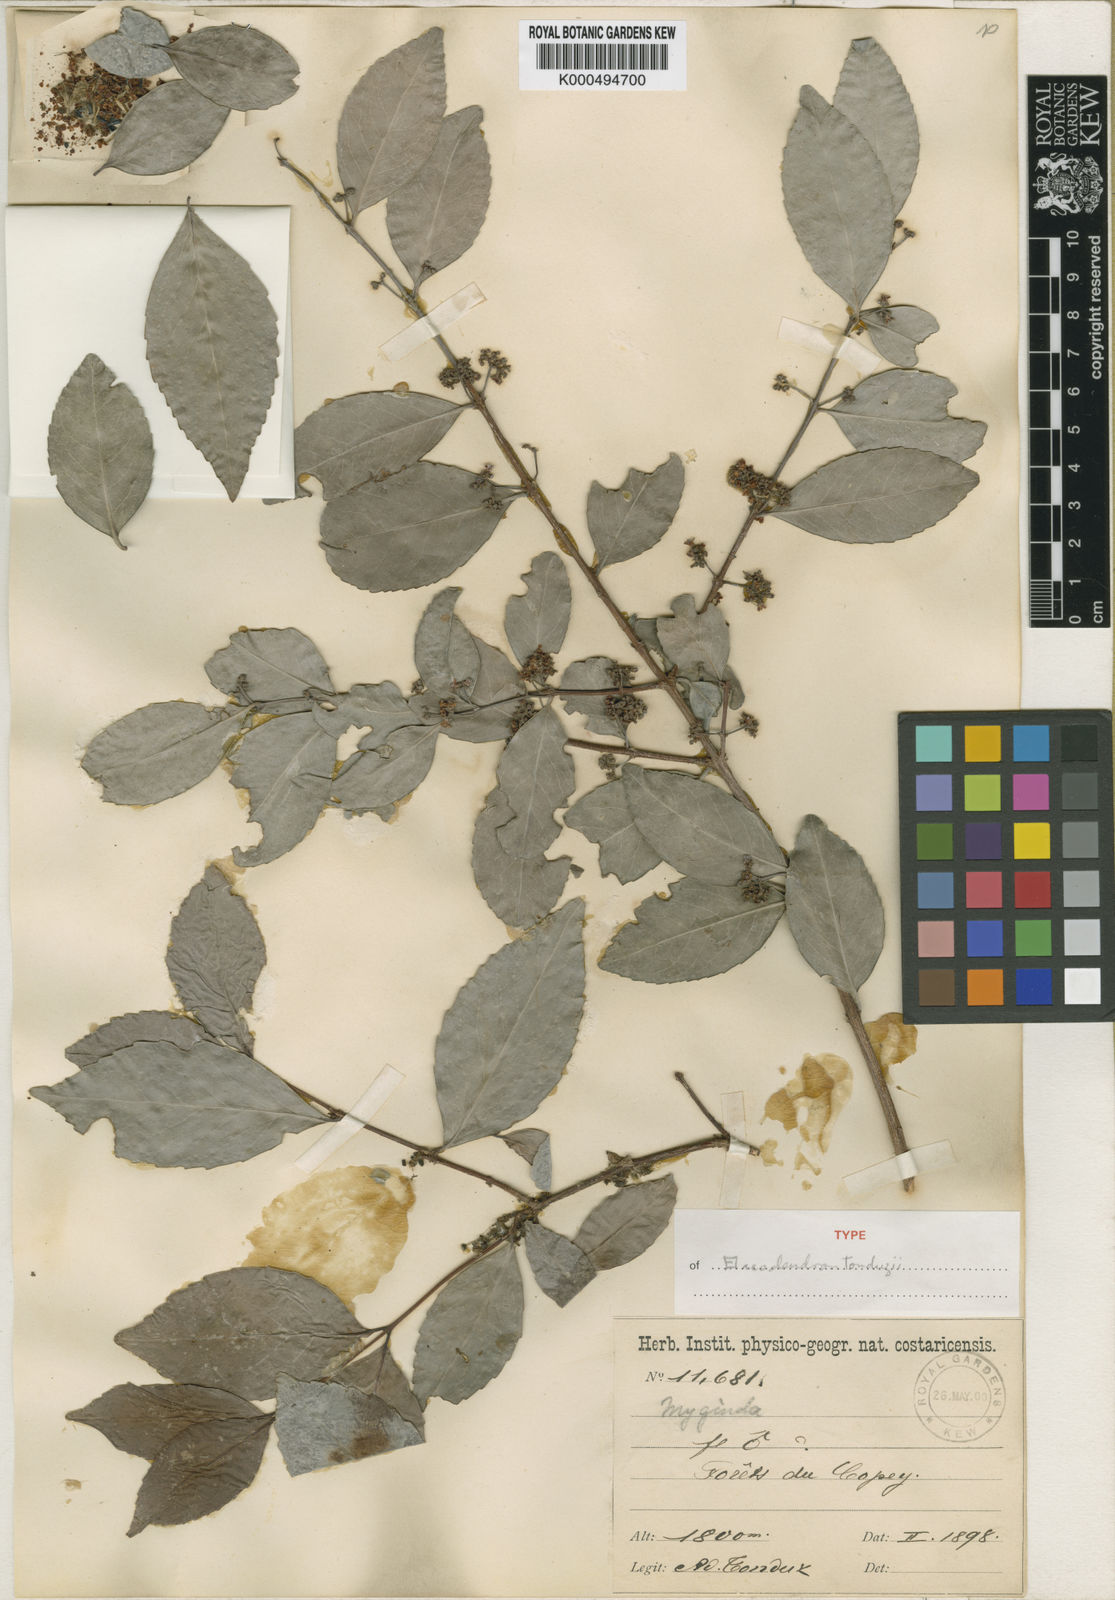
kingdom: Plantae
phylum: Tracheophyta
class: Magnoliopsida
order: Celastrales
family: Celastraceae
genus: Elaeodendron
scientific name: Elaeodendron
